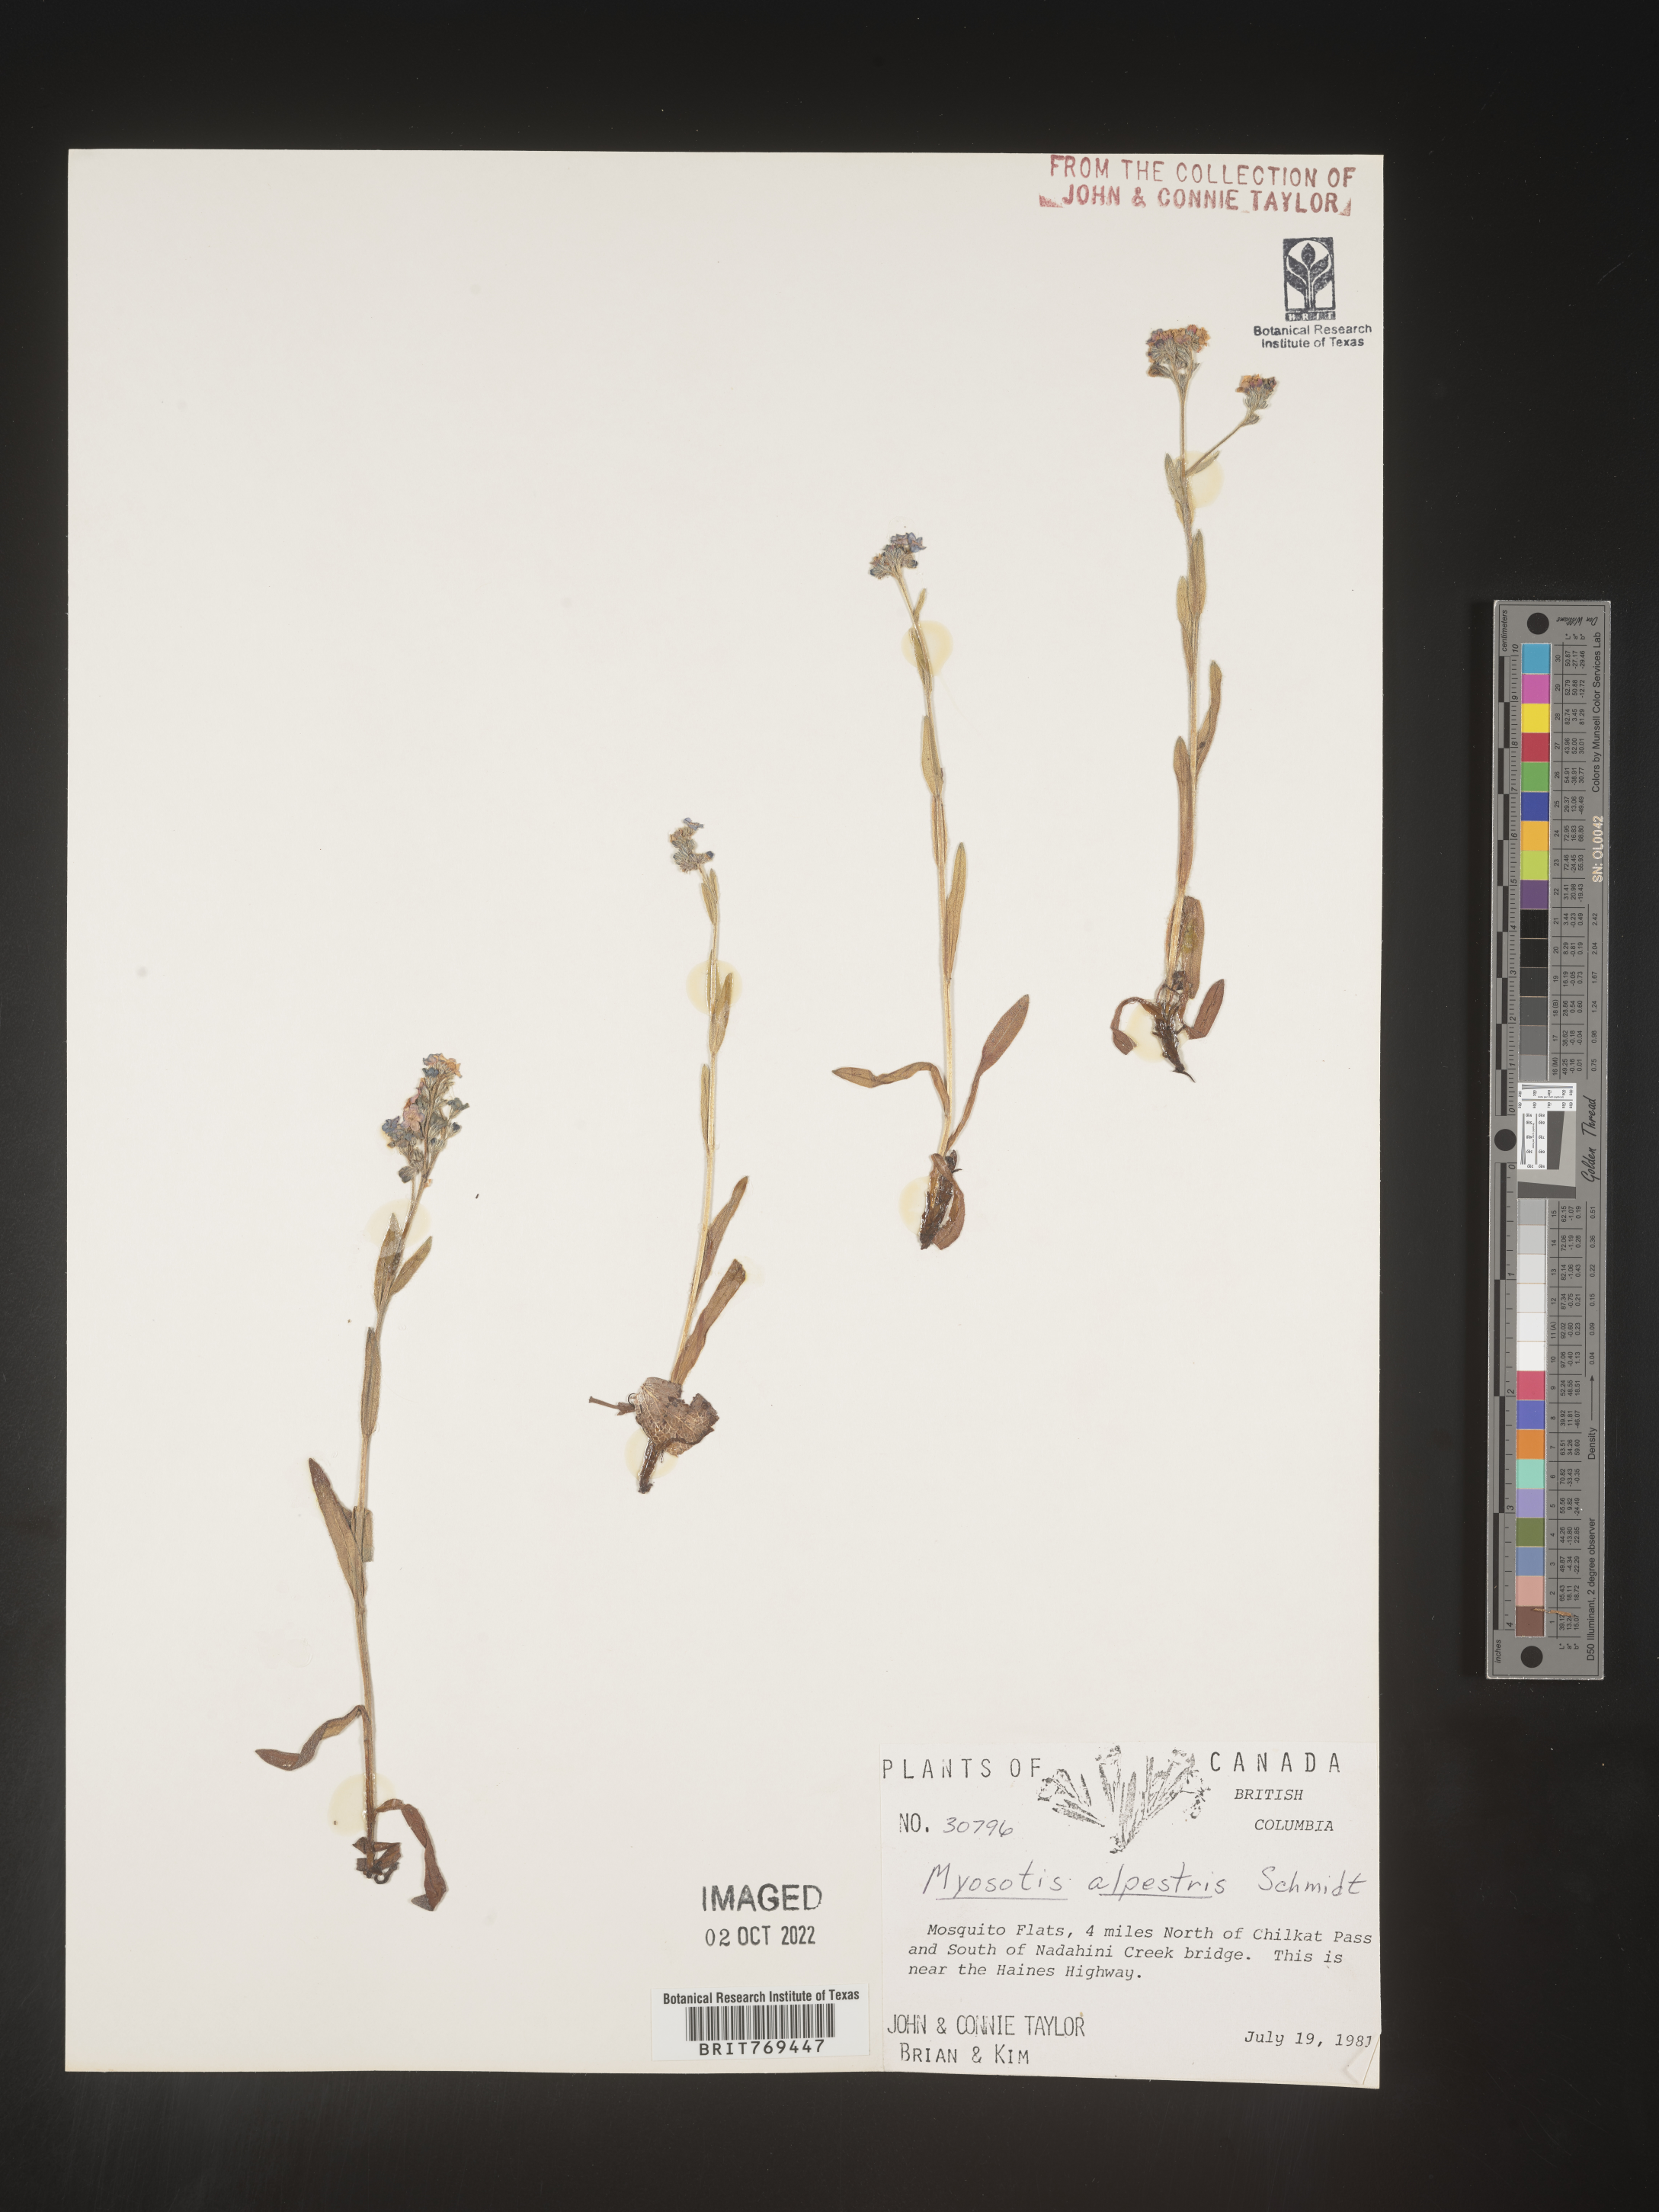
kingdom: Plantae
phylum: Tracheophyta
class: Magnoliopsida
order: Boraginales
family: Boraginaceae
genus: Myosotis
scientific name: Myosotis
